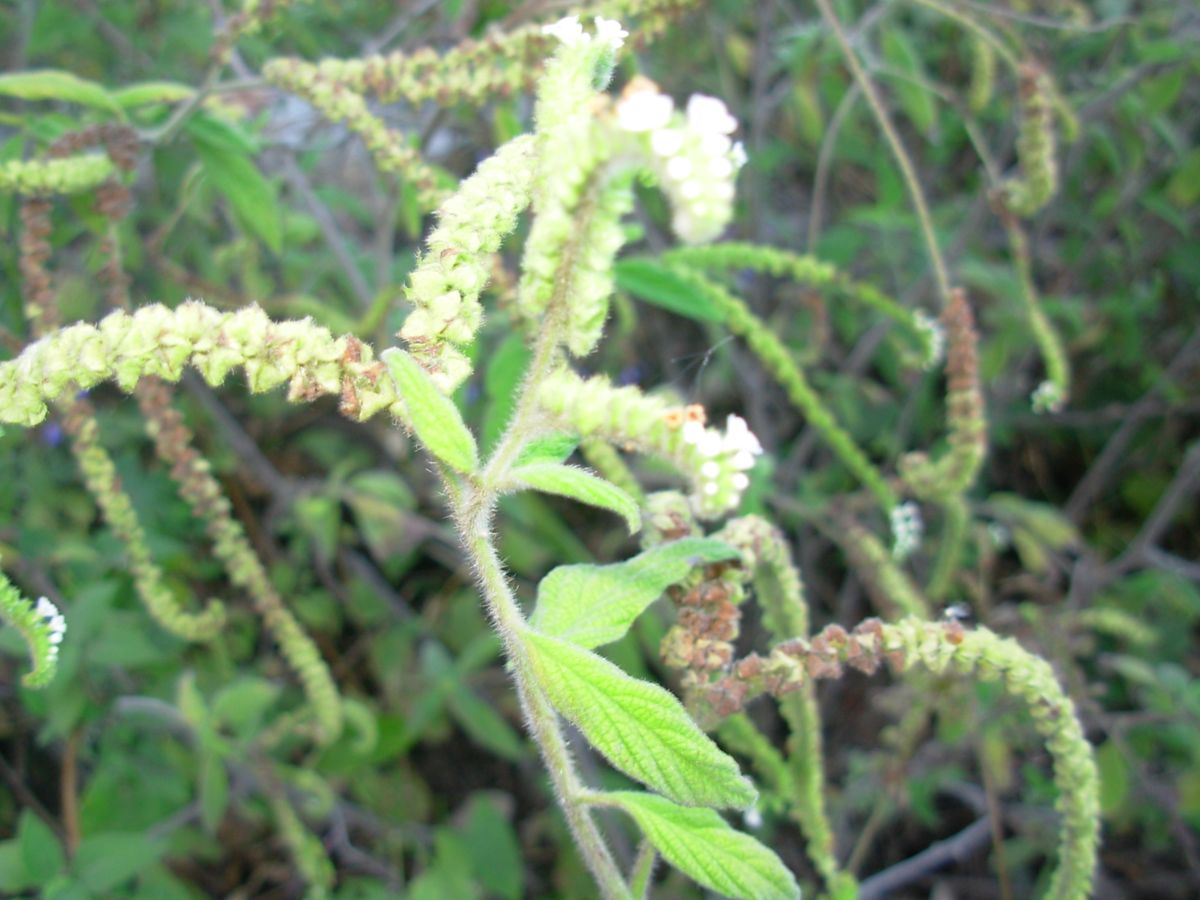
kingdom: Plantae
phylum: Tracheophyta
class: Magnoliopsida
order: Boraginales
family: Heliotropiaceae
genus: Heliotropium
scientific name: Heliotropium rufipilum
